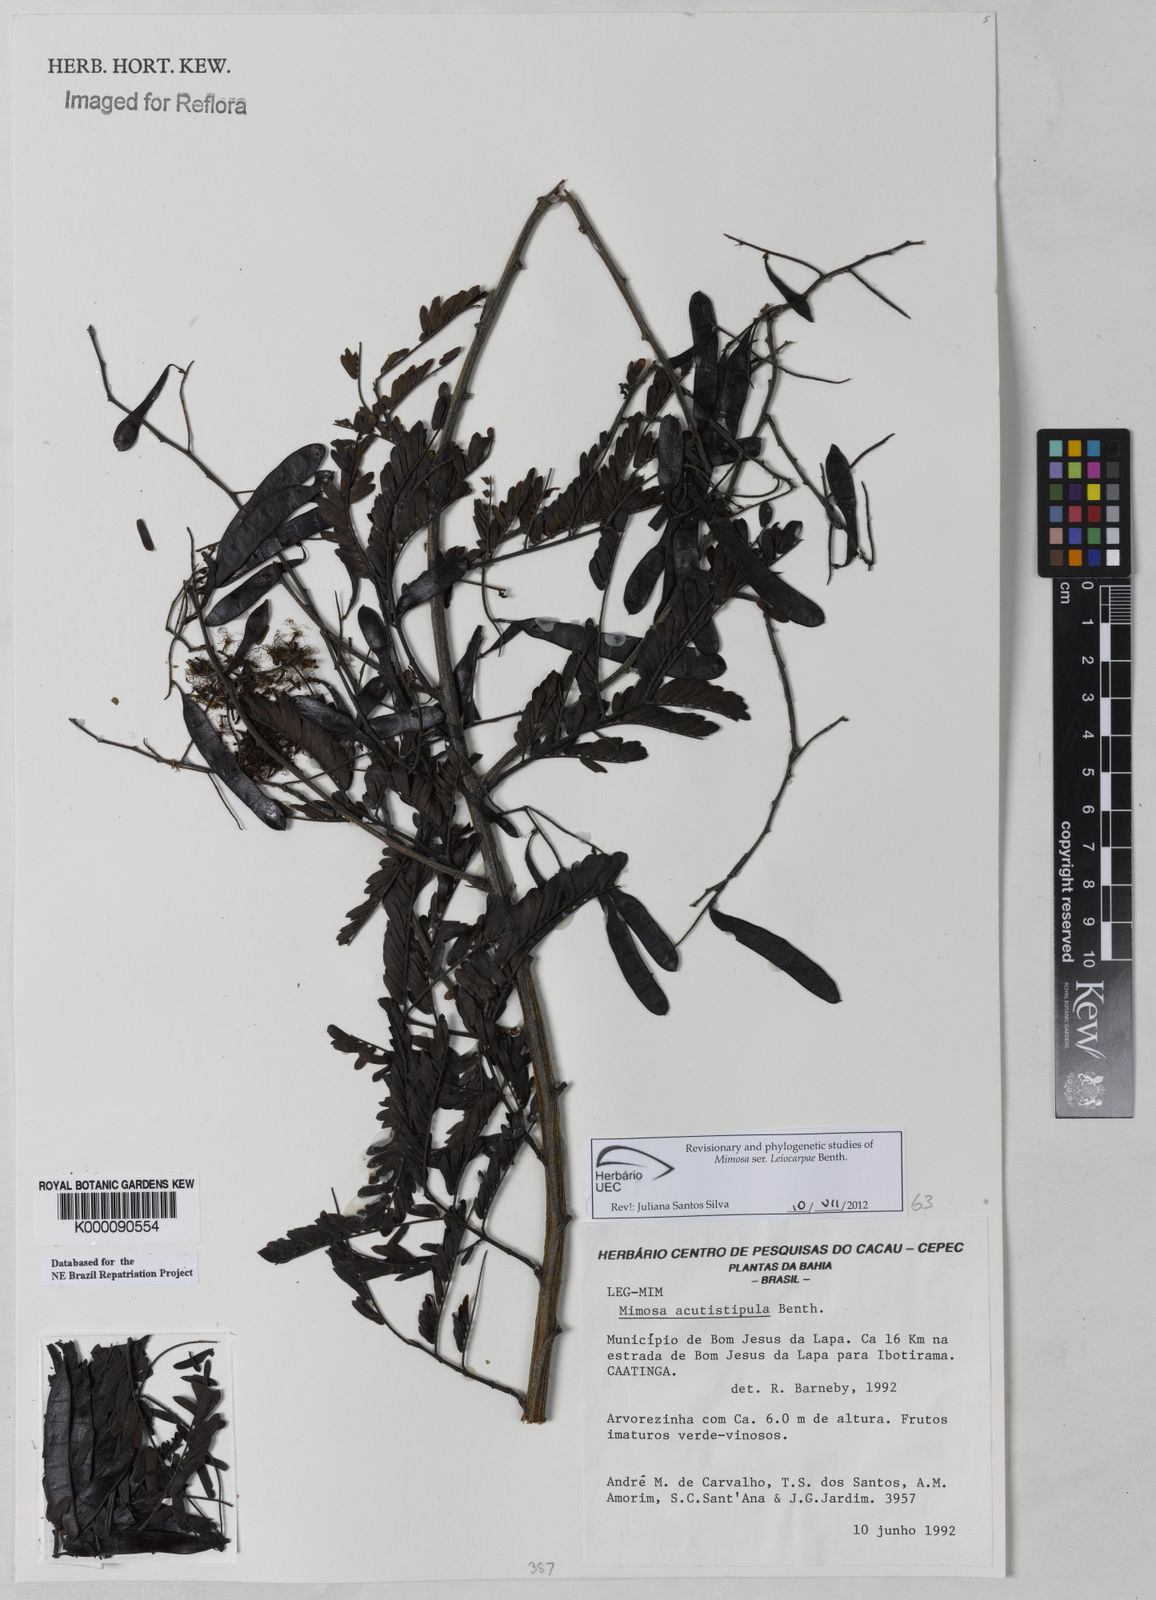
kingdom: Plantae
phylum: Tracheophyta
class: Magnoliopsida
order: Fabales
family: Fabaceae
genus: Mimosa
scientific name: Mimosa acutistipula
